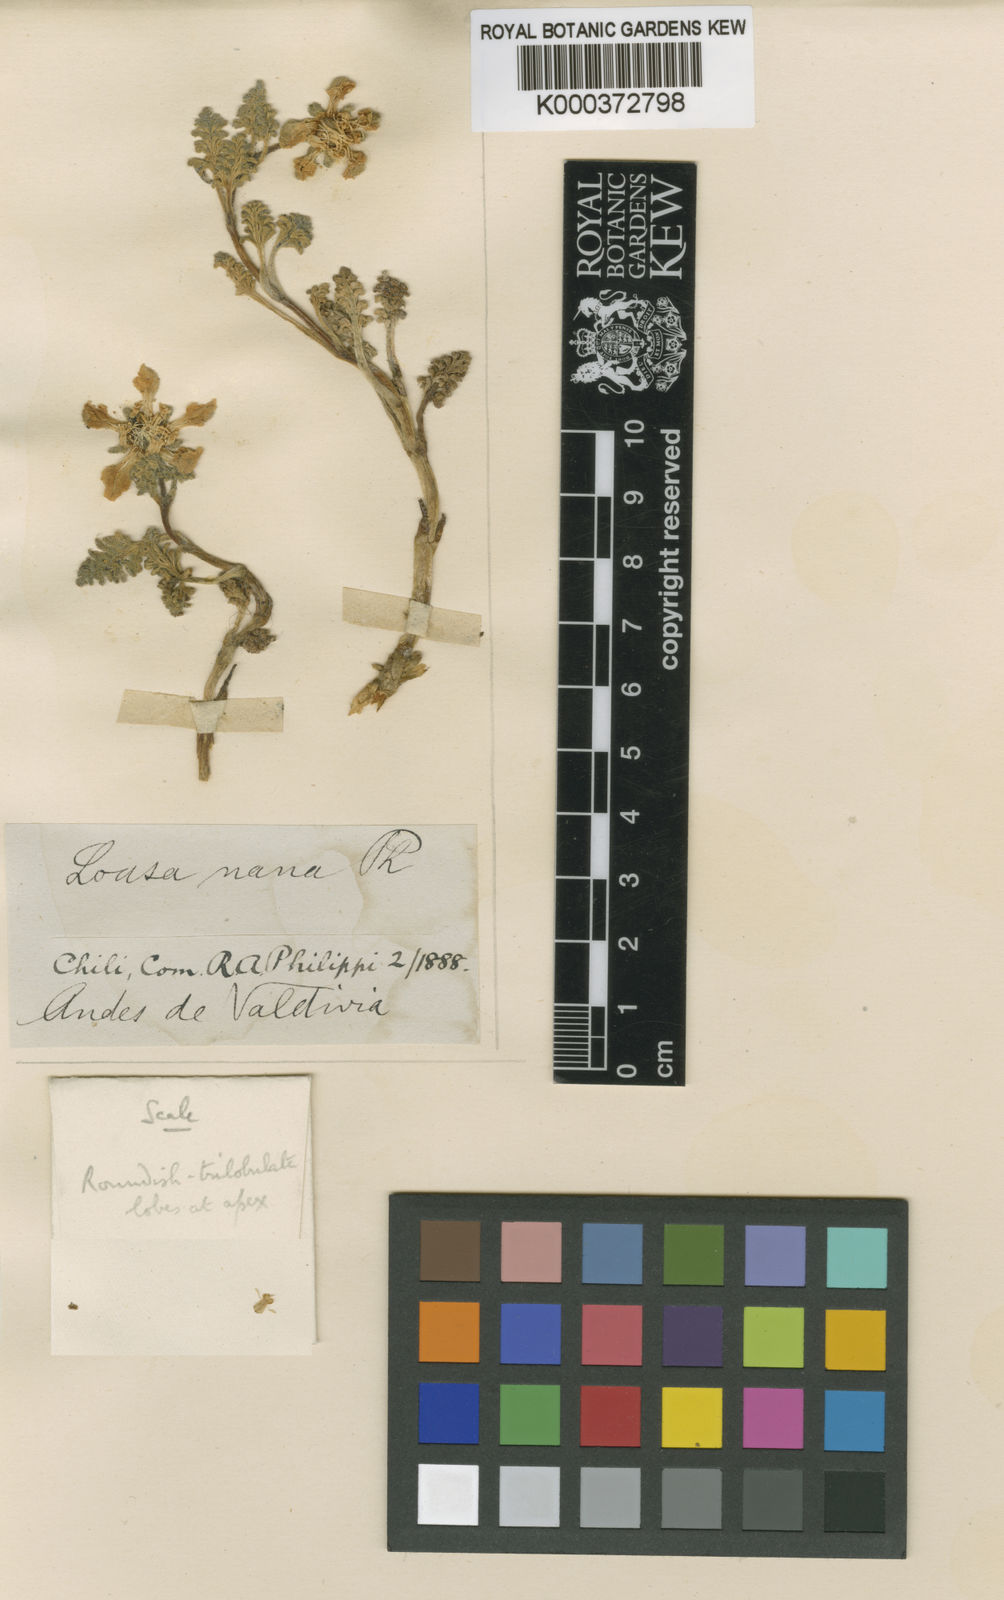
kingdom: Plantae
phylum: Tracheophyta
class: Magnoliopsida
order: Cornales
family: Loasaceae
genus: Loasa
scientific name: Loasa
